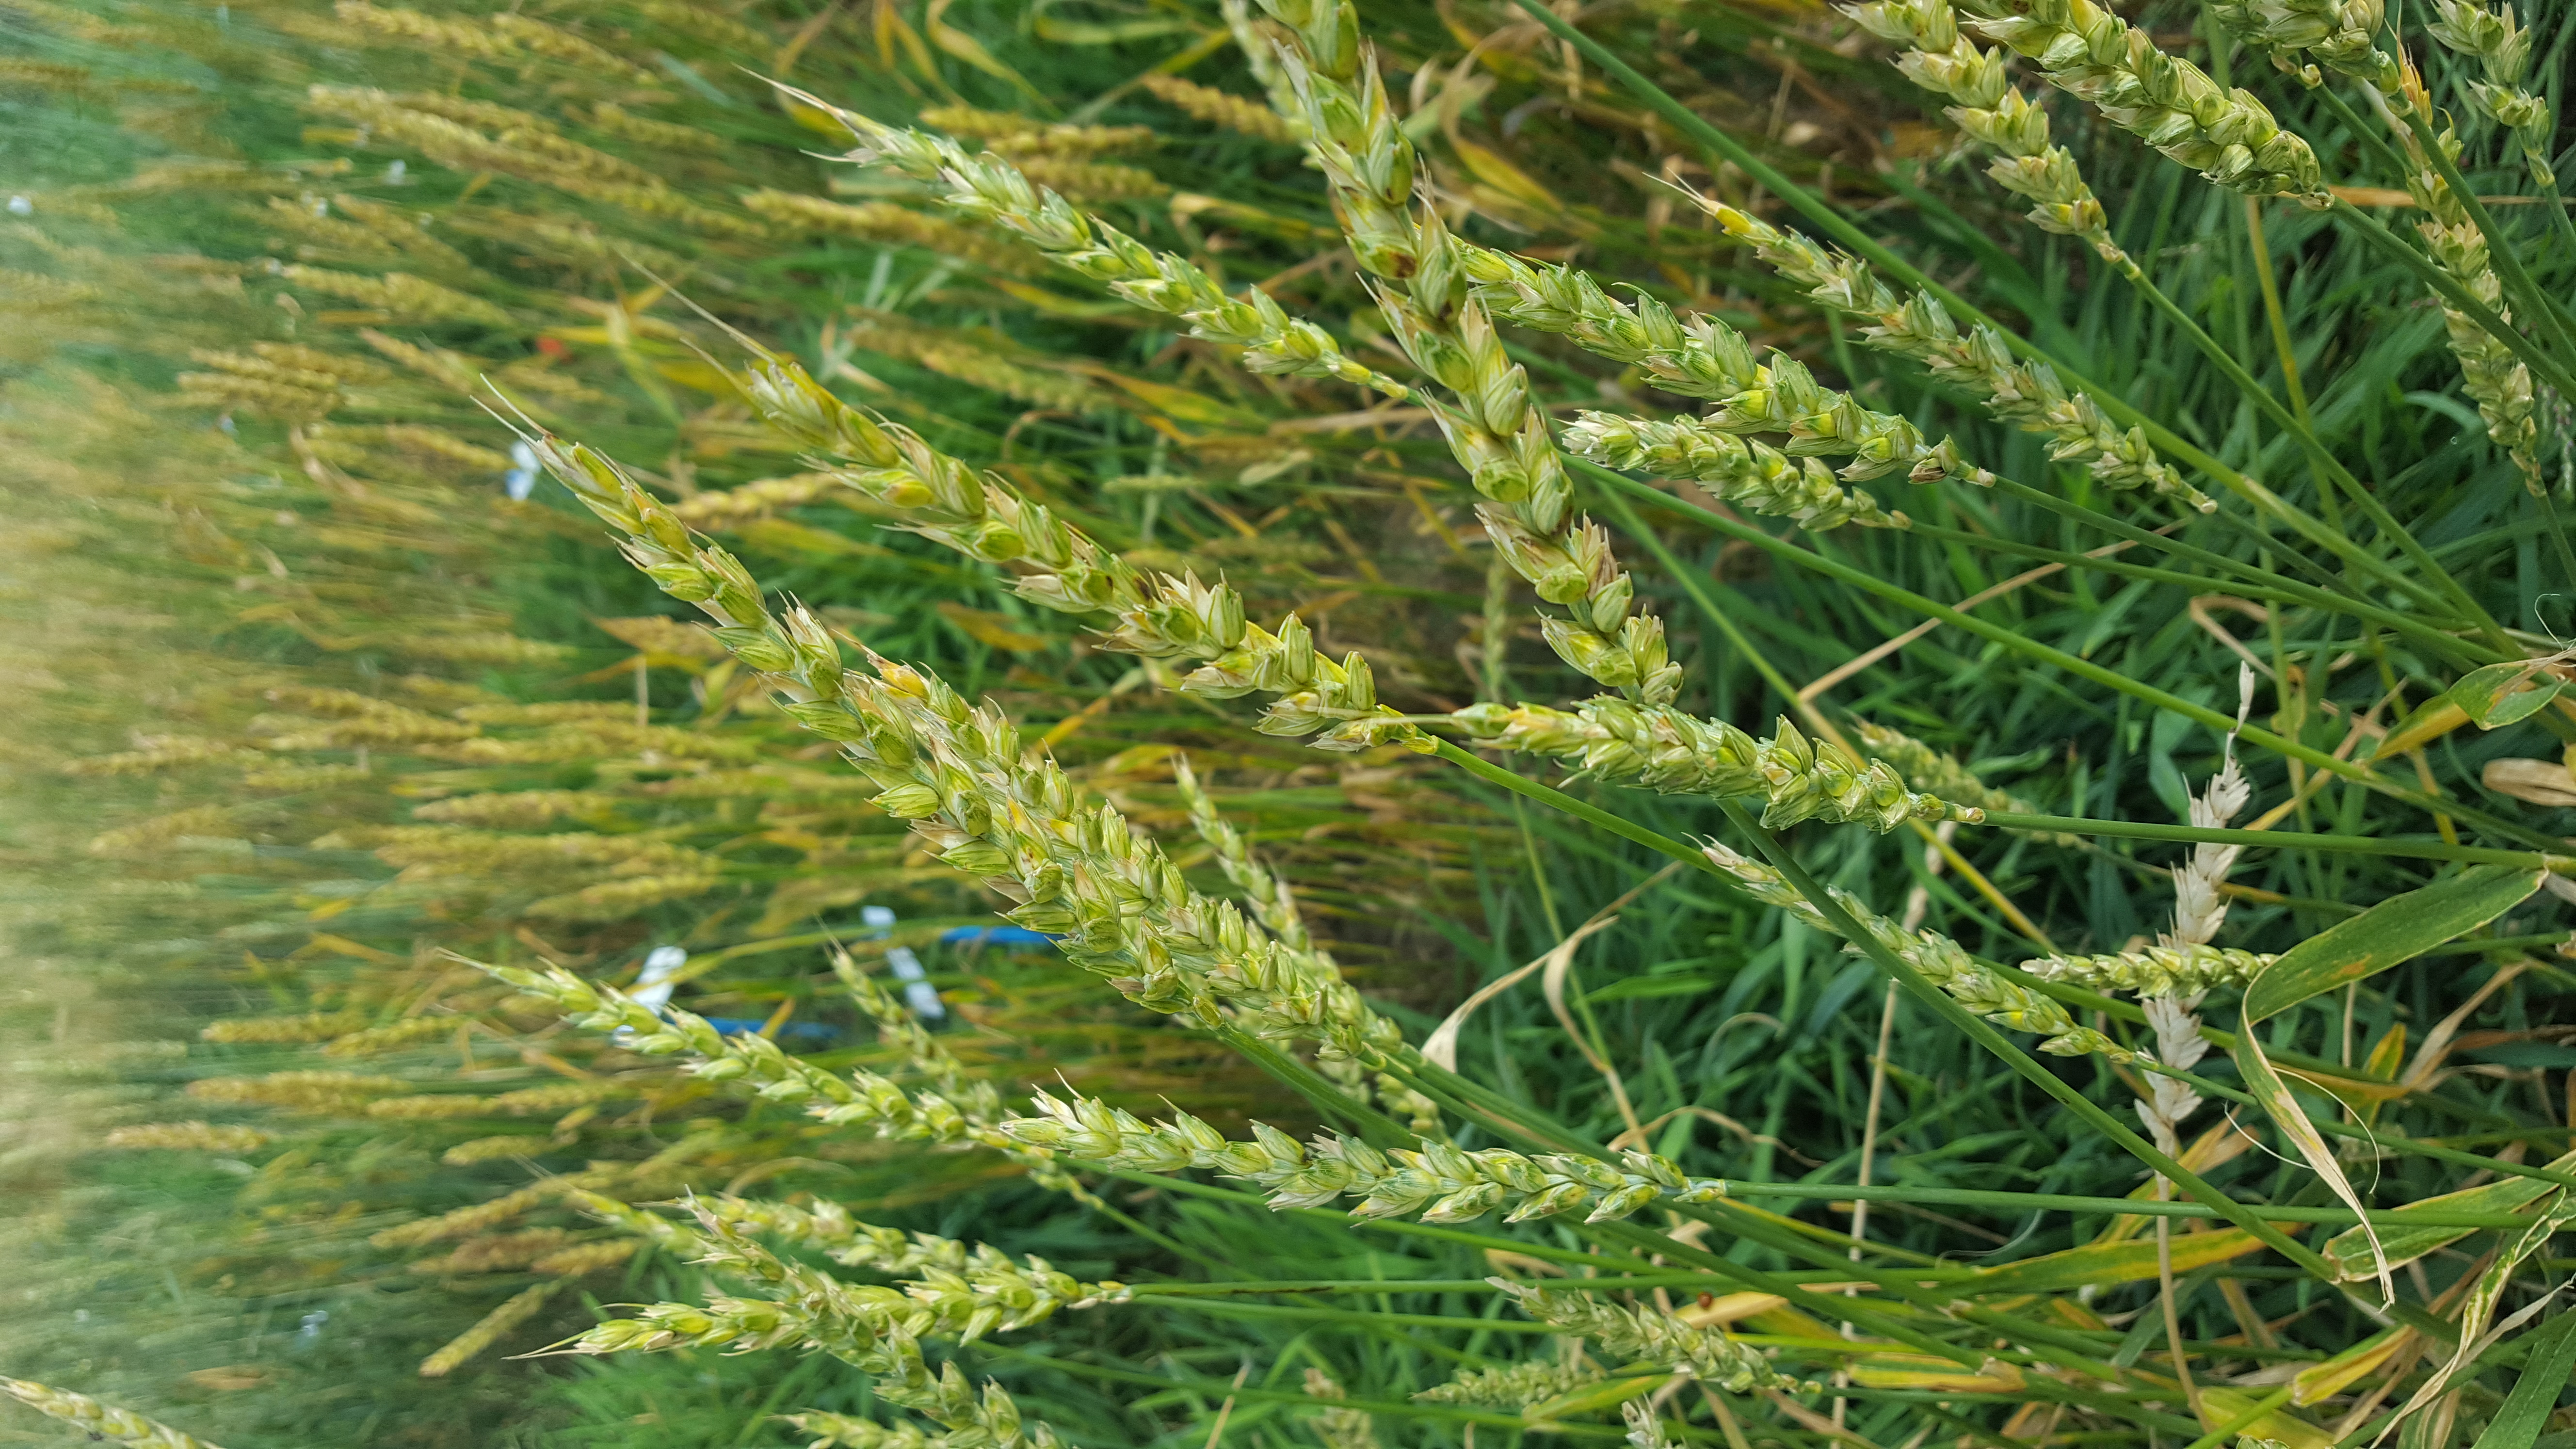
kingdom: Plantae
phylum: Tracheophyta
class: Liliopsida
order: Poales
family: Poaceae
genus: Triticum
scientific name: Triticum aestivum
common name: Common wheat
